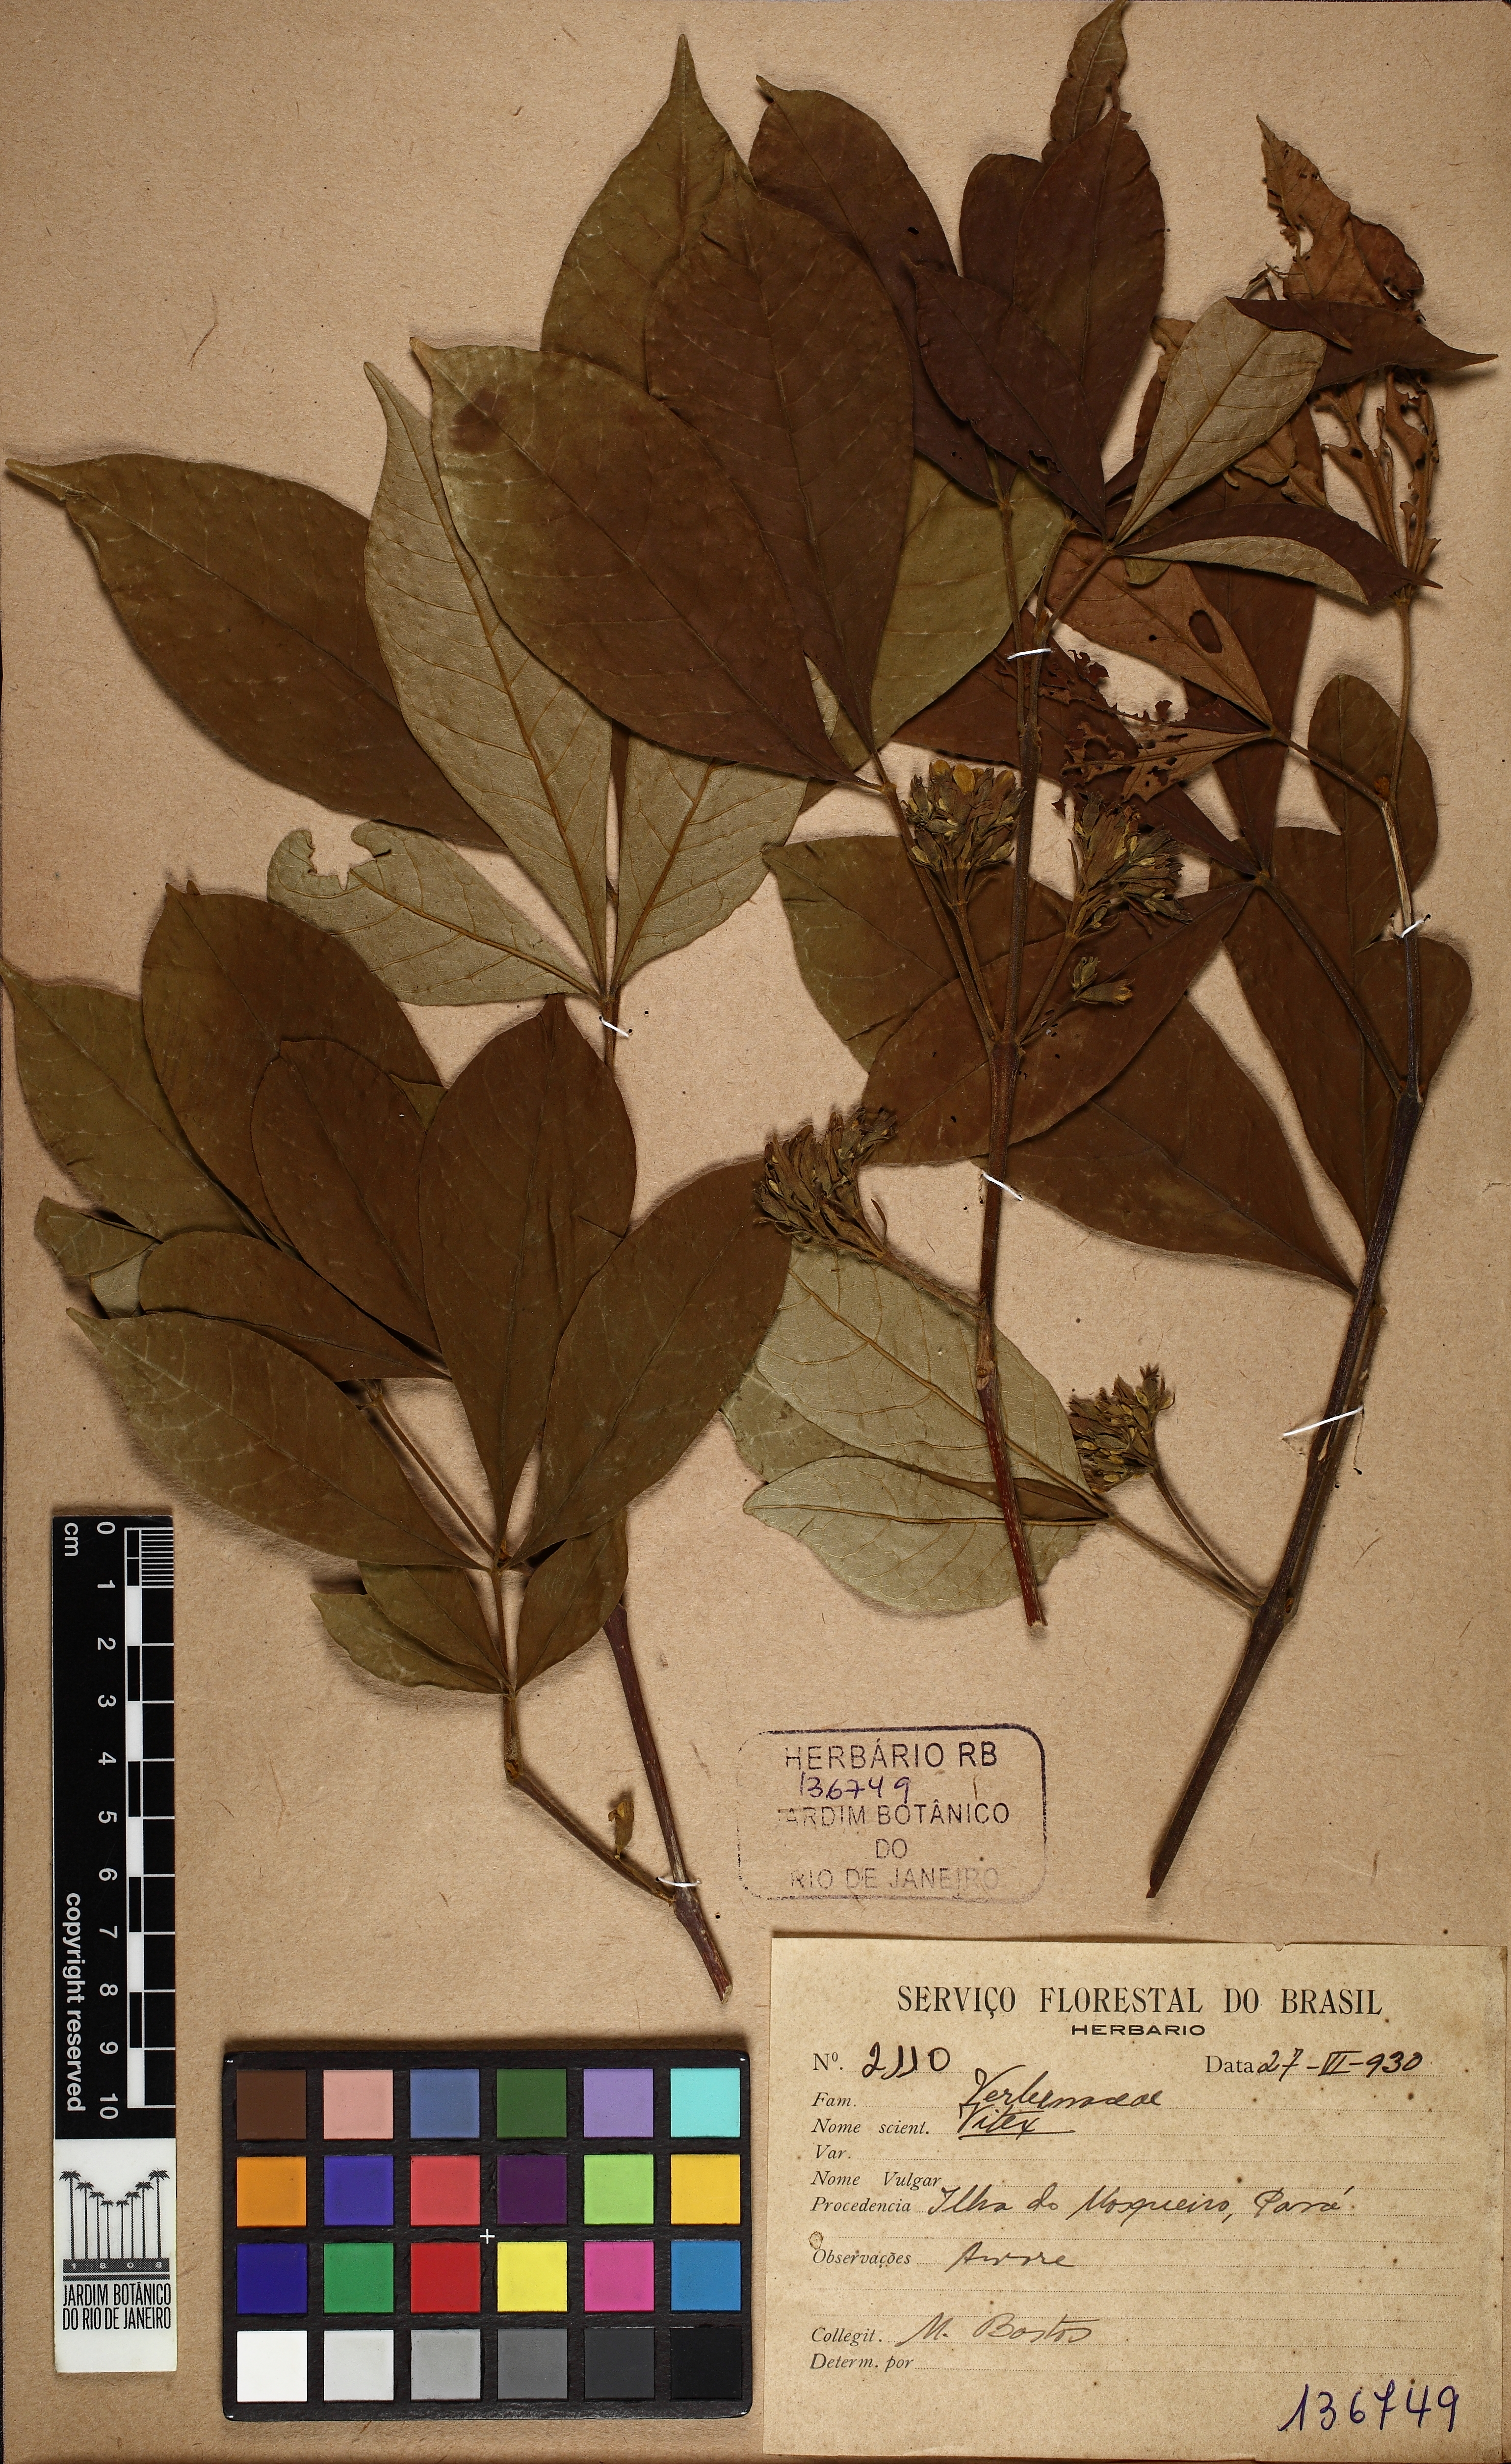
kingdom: Plantae
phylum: Tracheophyta
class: Magnoliopsida
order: Lamiales
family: Lamiaceae
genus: Vitex
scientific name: Vitex
